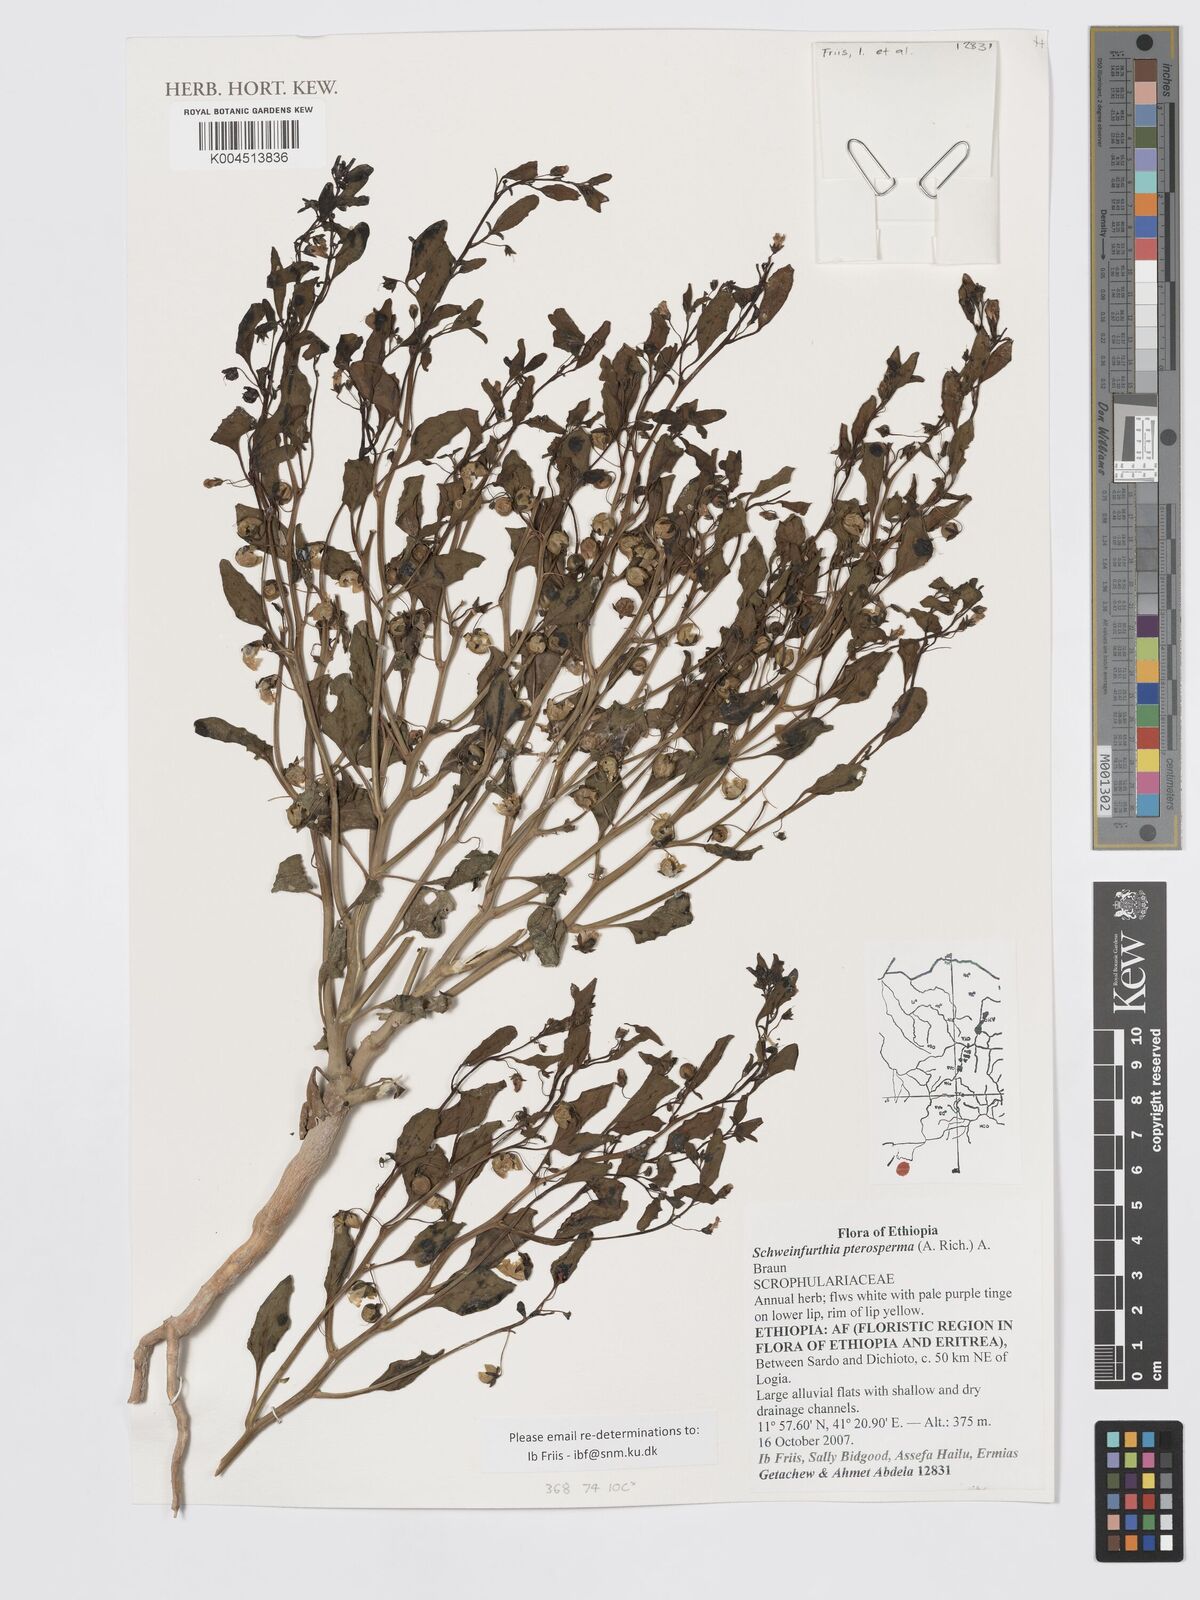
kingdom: Plantae
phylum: Tracheophyta
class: Magnoliopsida
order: Lamiales
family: Plantaginaceae
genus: Schweinfurthia
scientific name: Schweinfurthia pterosperma
